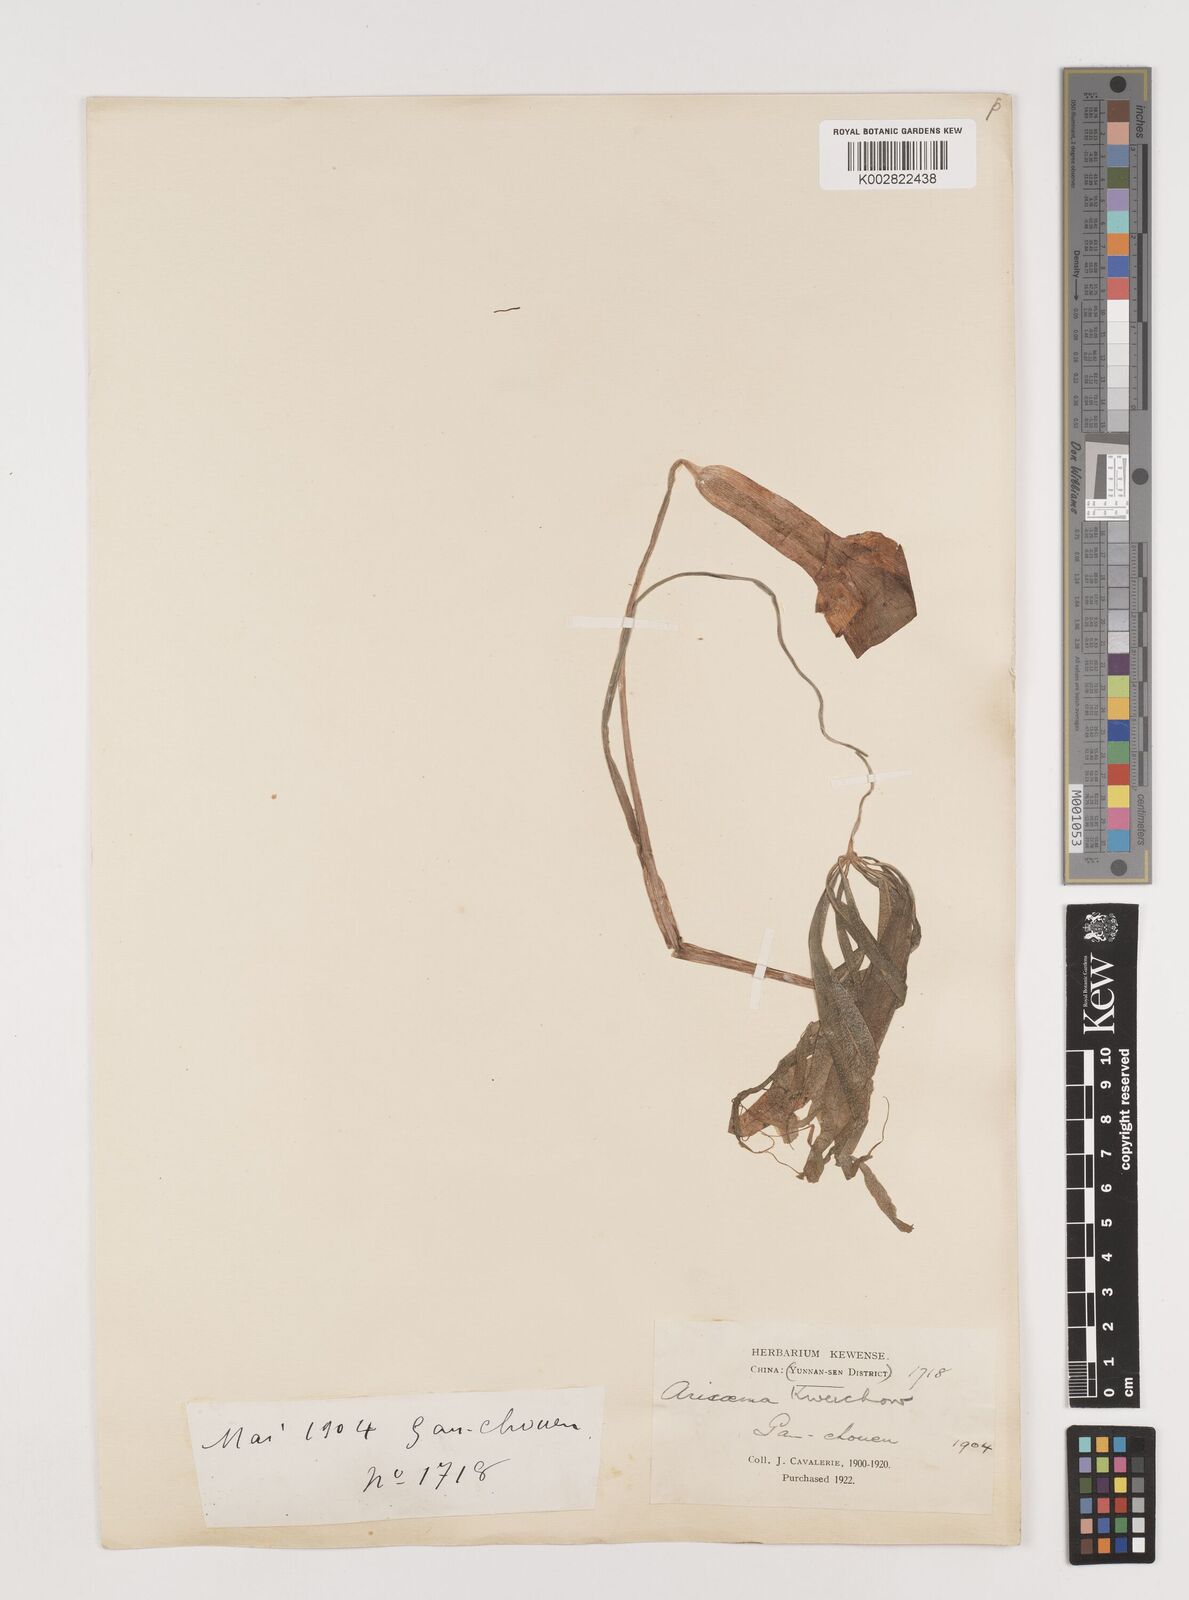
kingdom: Plantae
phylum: Tracheophyta
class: Liliopsida
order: Alismatales
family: Araceae
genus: Arisaema
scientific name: Arisaema erubescens
